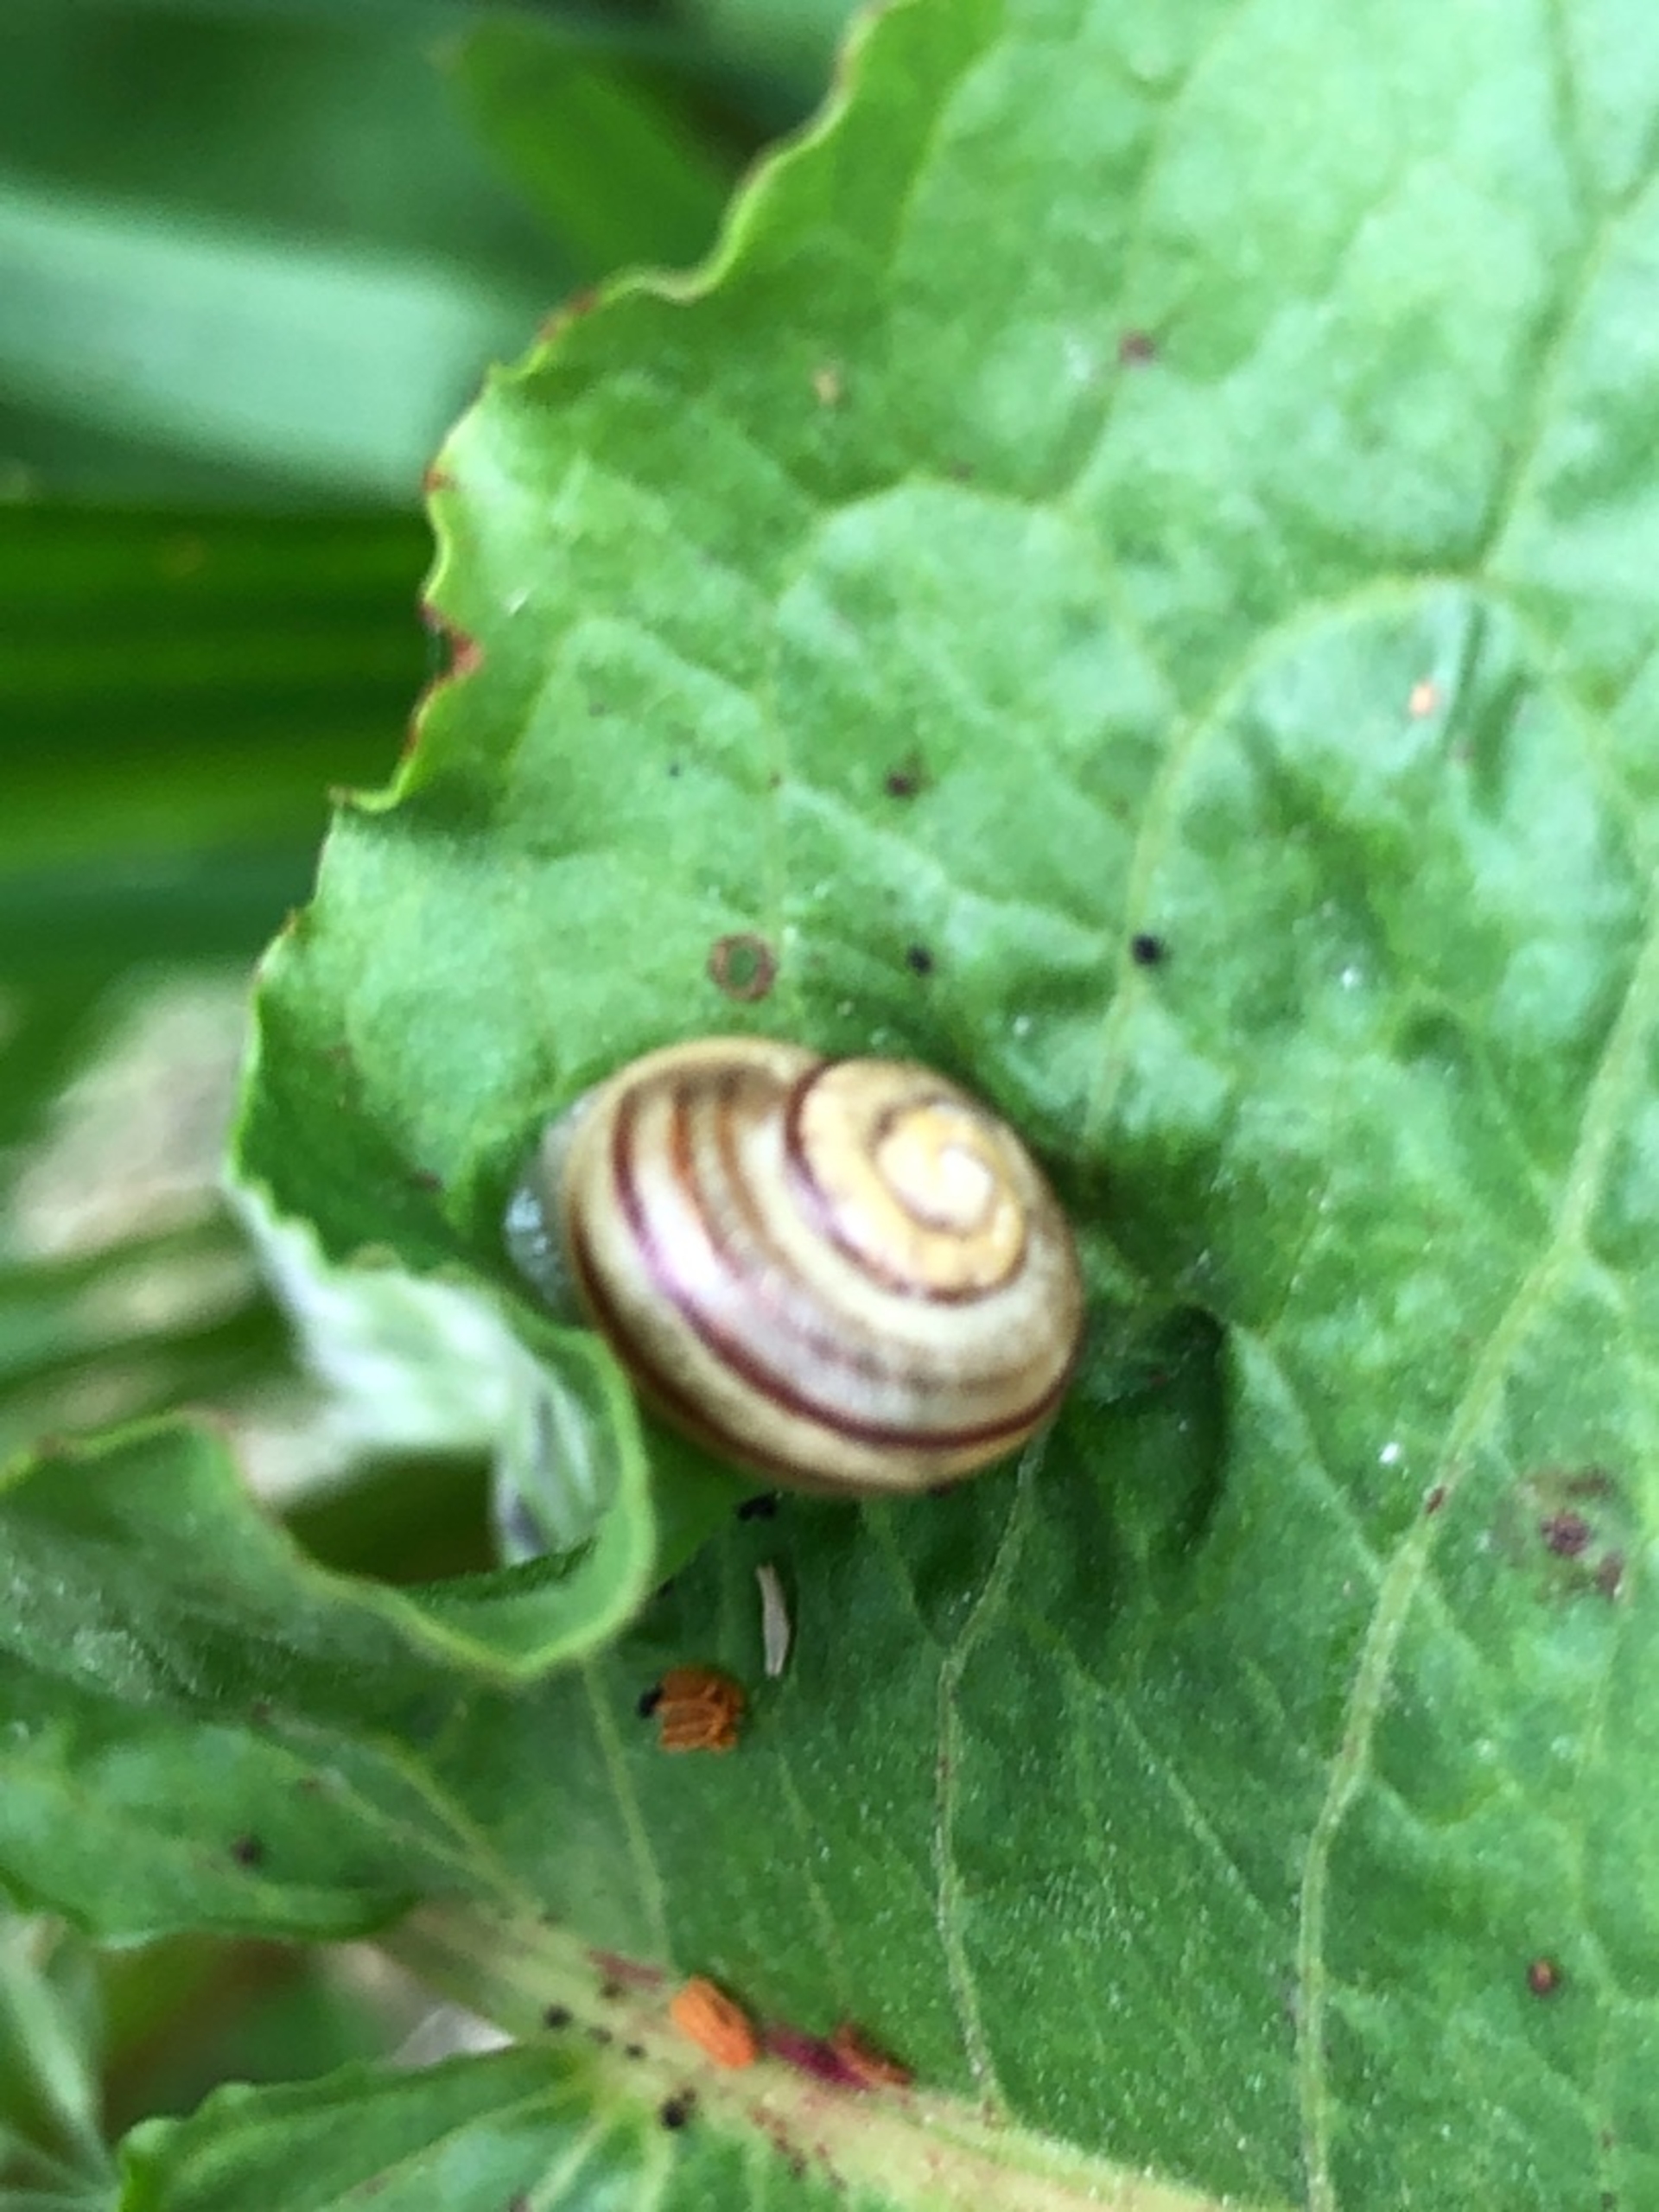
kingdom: Animalia
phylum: Mollusca
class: Gastropoda
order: Stylommatophora
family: Helicidae
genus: Cepaea
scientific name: Cepaea hortensis
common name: Havesnegl
